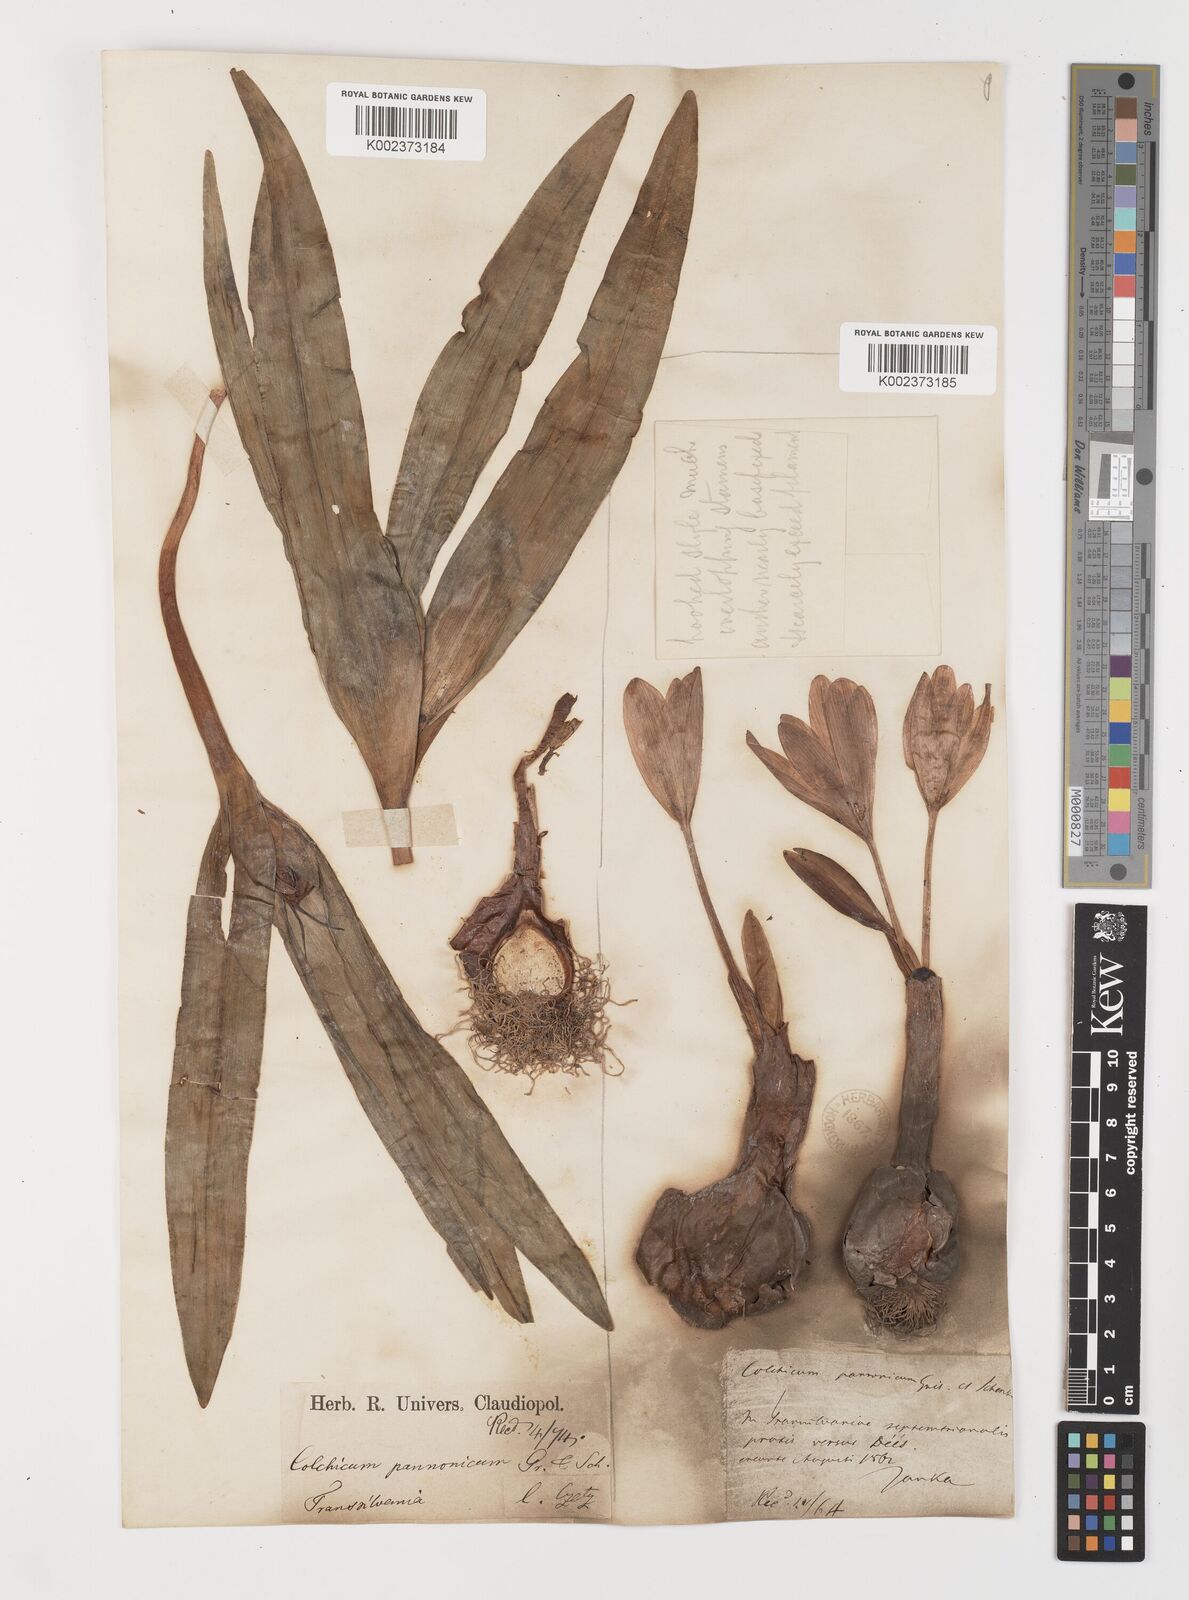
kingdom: Plantae
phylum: Tracheophyta
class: Liliopsida
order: Liliales
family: Colchicaceae
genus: Colchicum
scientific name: Colchicum autumnale
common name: Autumn crocus
